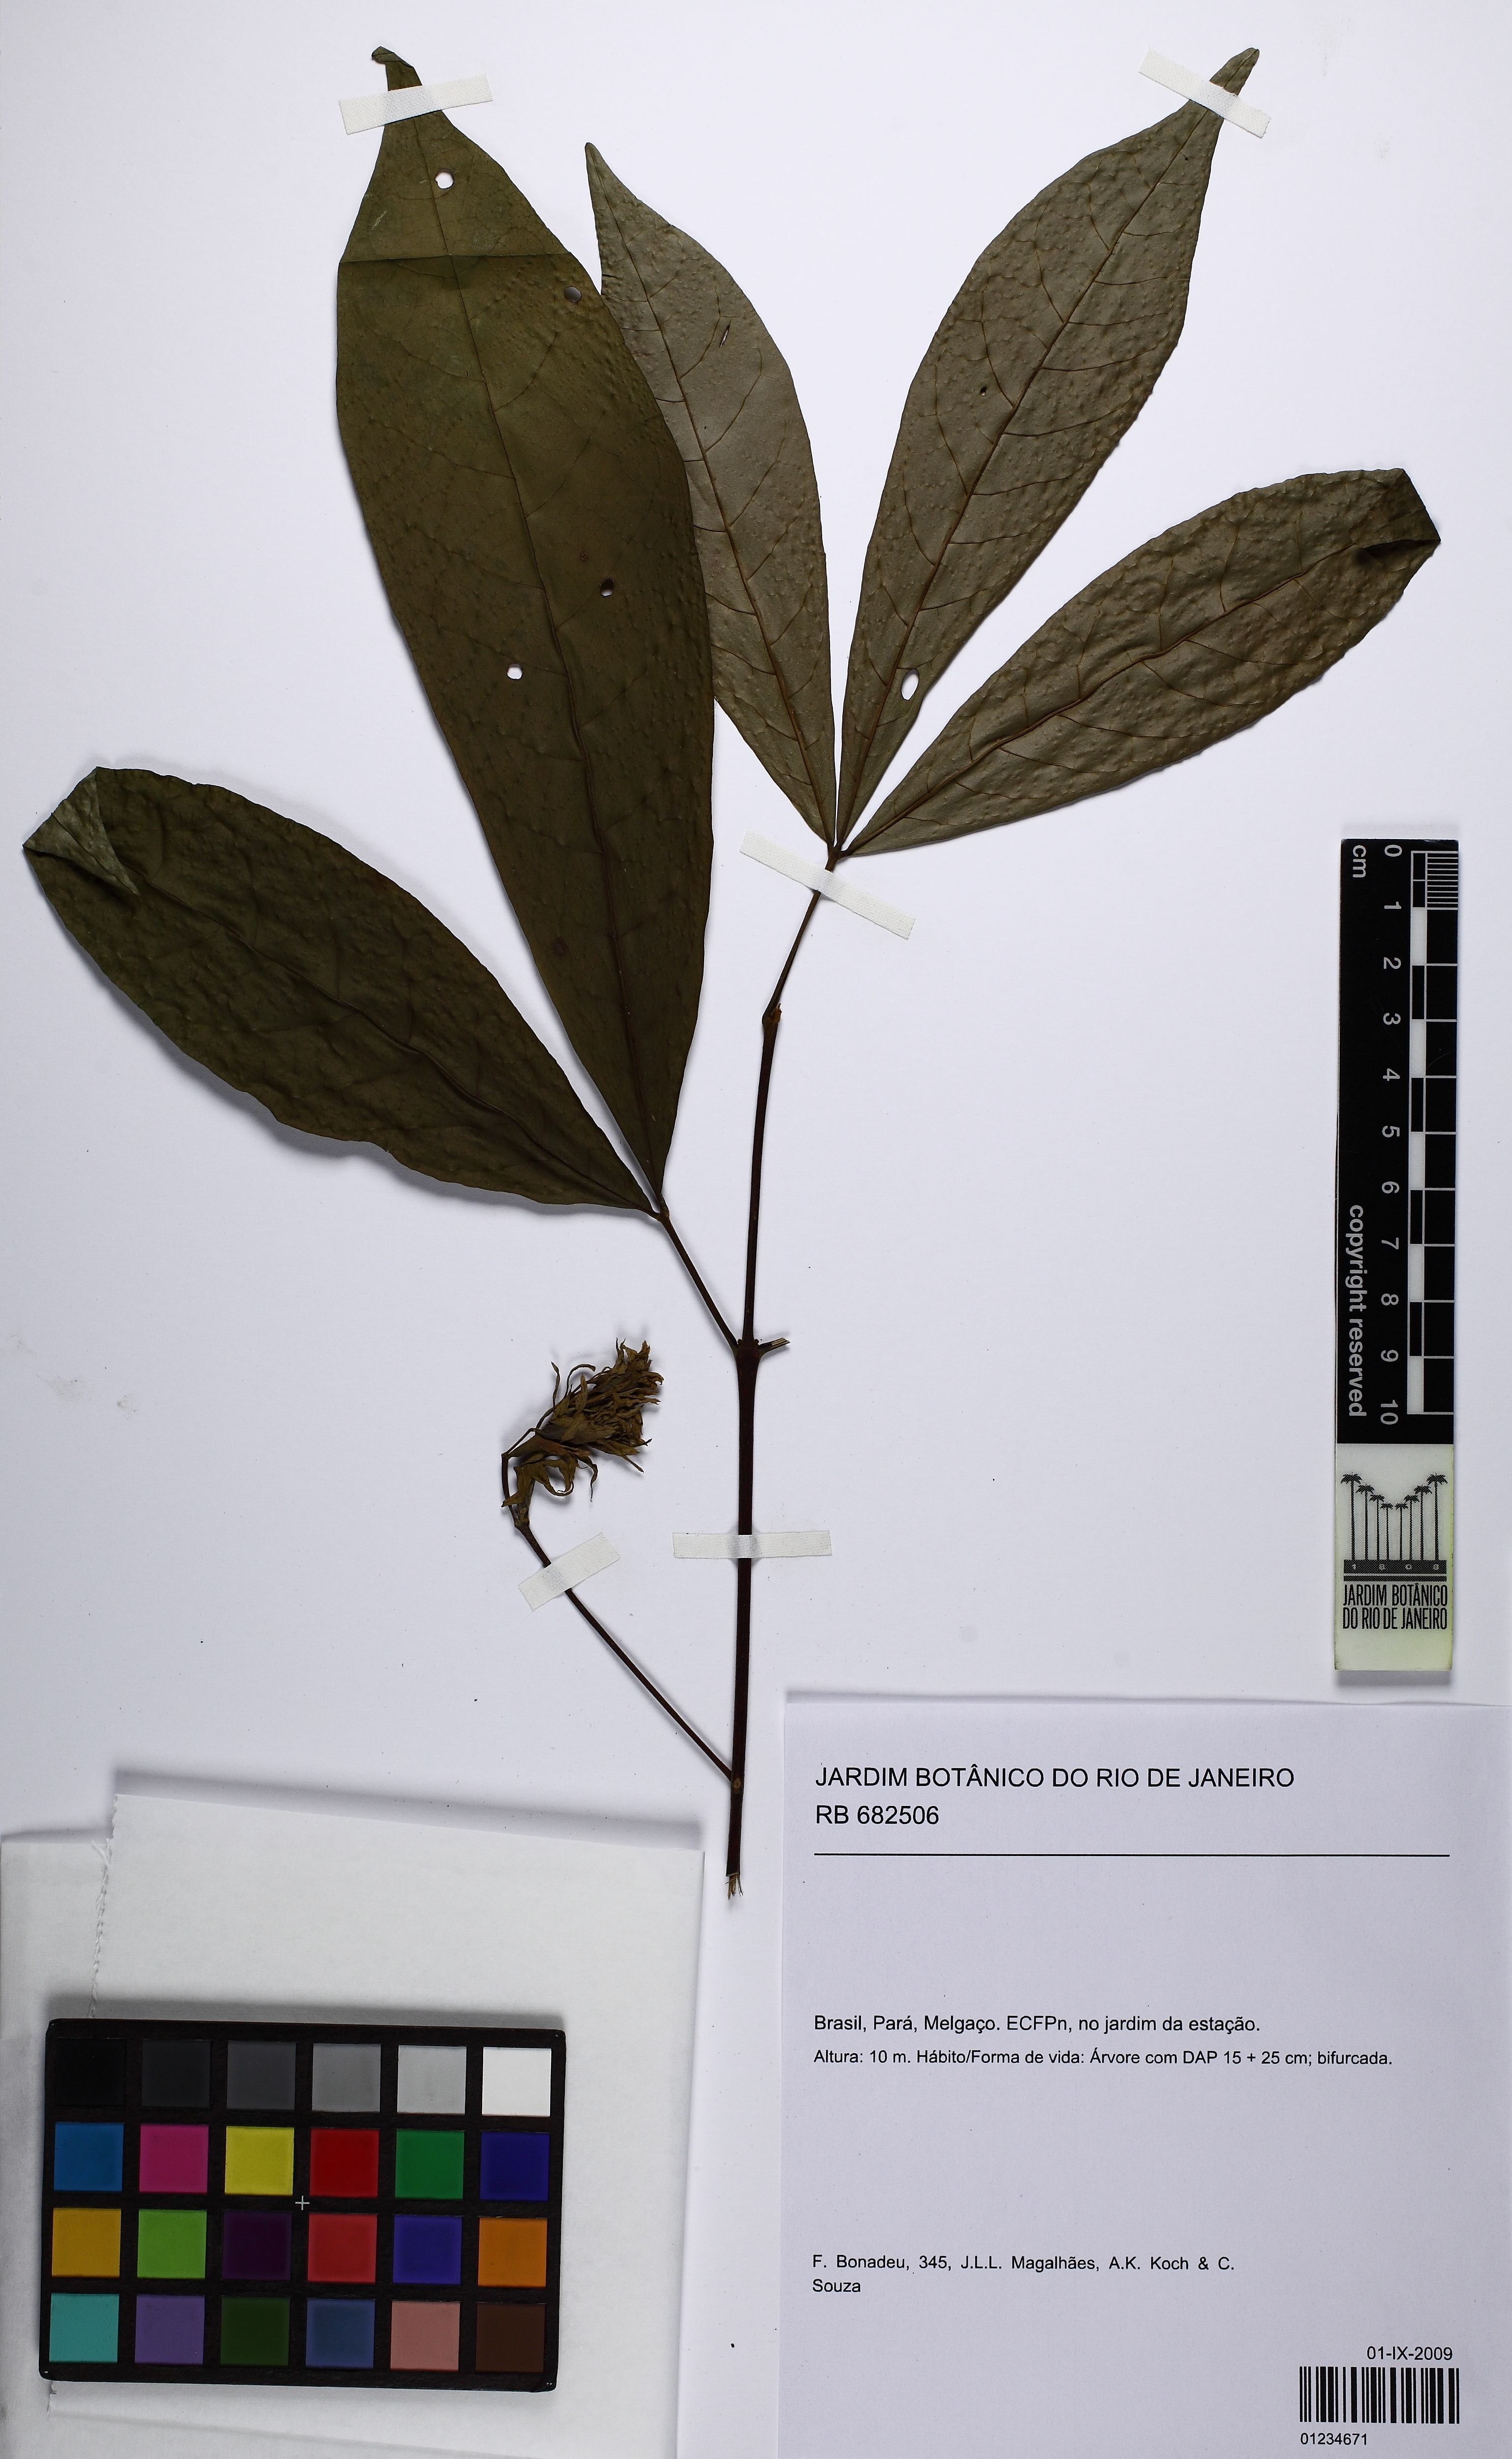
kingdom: Plantae
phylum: Tracheophyta
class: Magnoliopsida
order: Lamiales
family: Lamiaceae
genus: Vitex
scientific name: Vitex
